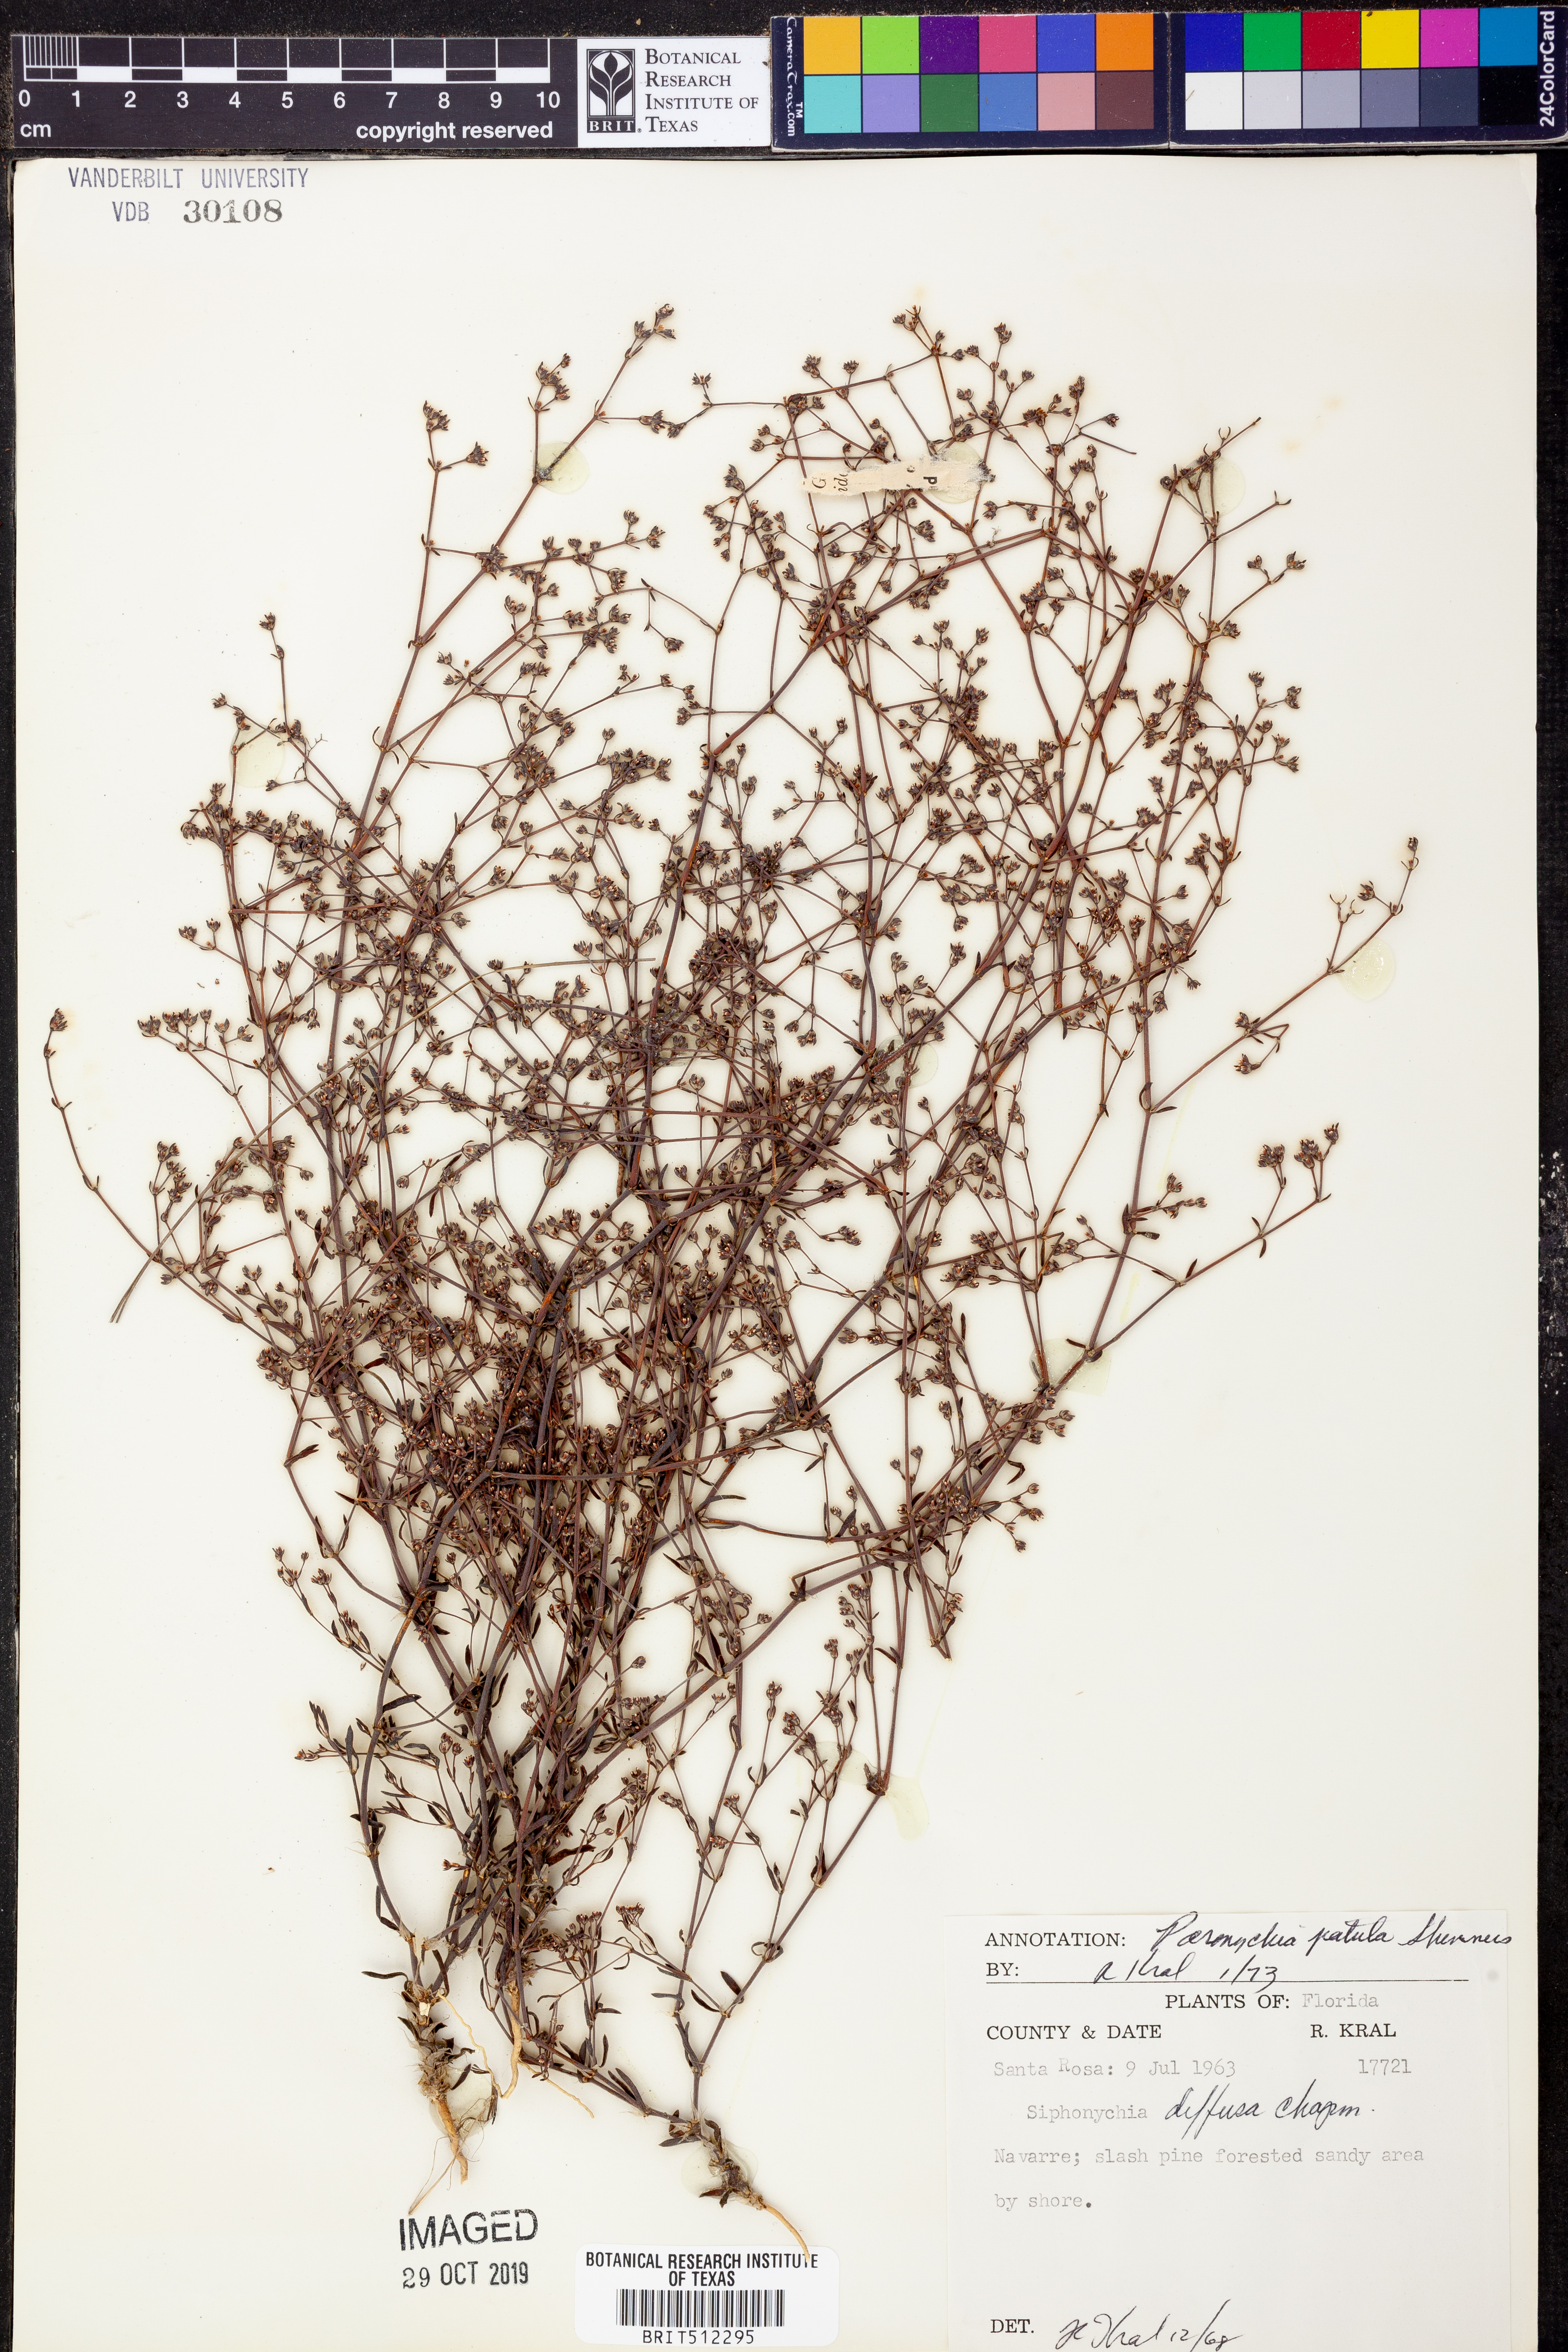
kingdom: Plantae
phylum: Tracheophyta
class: Magnoliopsida
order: Caryophyllales
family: Caryophyllaceae
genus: Paronychia
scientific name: Paronychia patula
